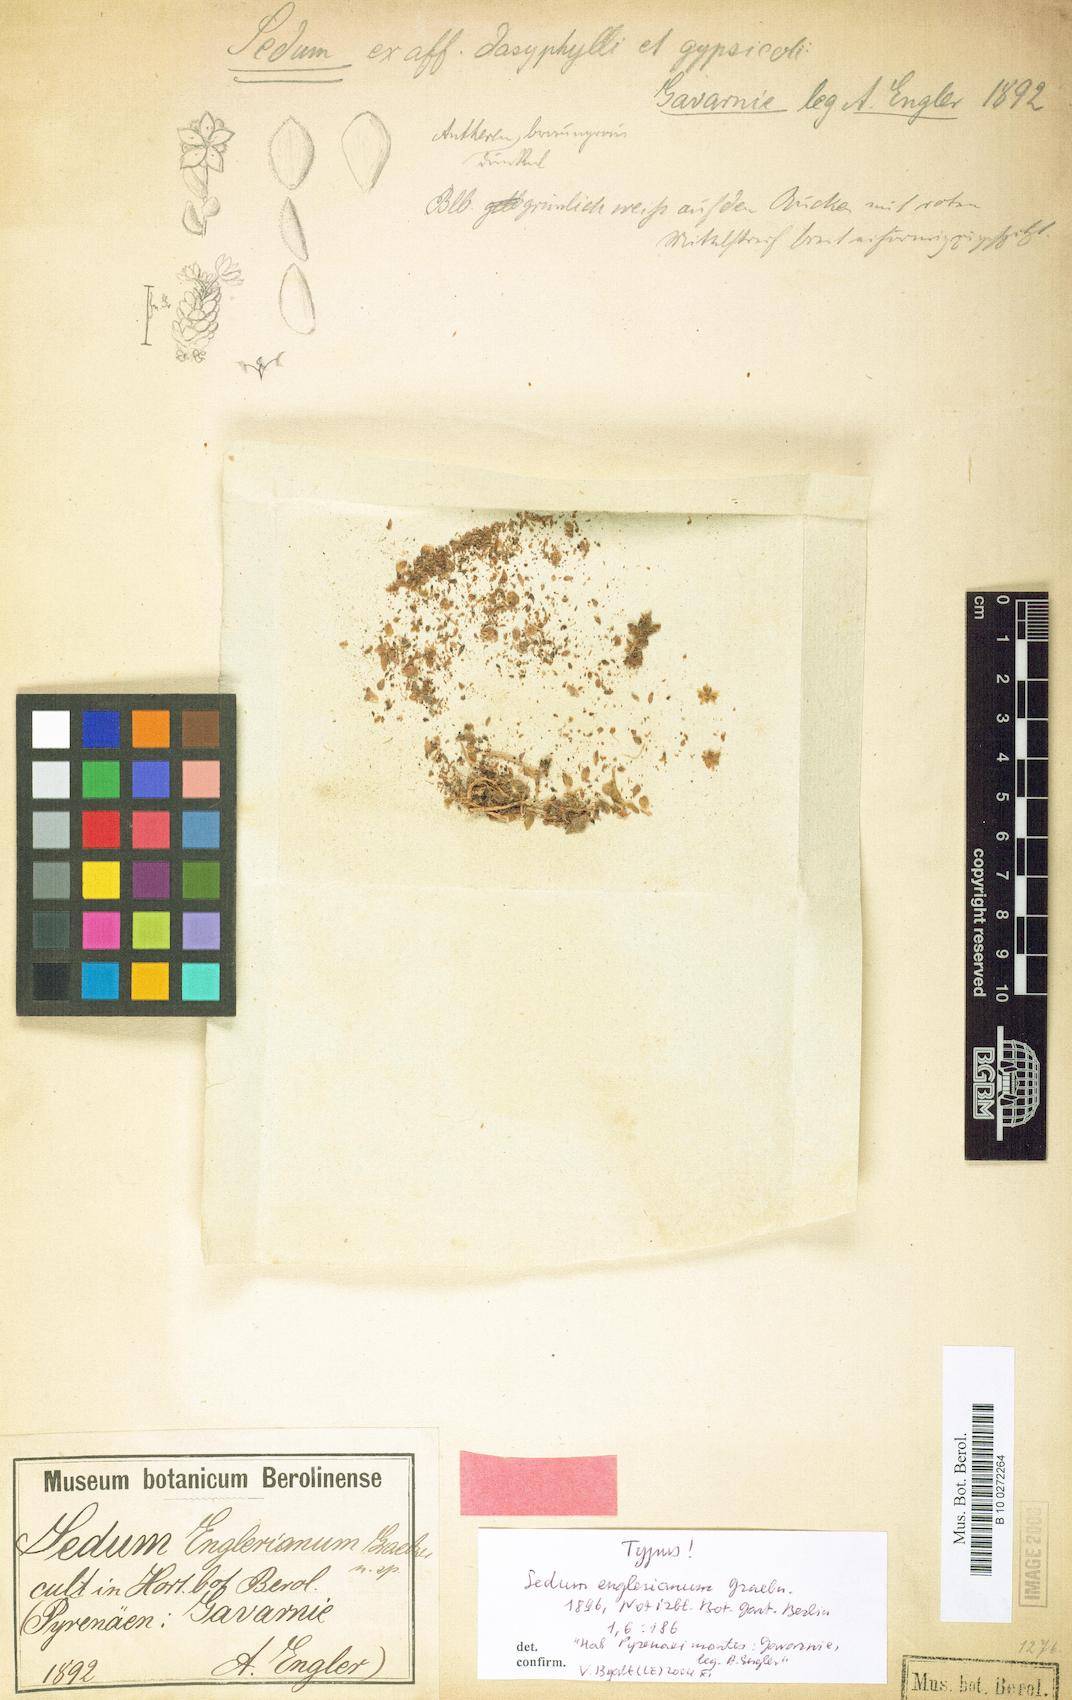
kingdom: Plantae
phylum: Tracheophyta
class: Magnoliopsida
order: Saxifragales
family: Crassulaceae
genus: Sedum
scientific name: Sedum dasyphyllum
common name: Thick-leaf stonecrop
